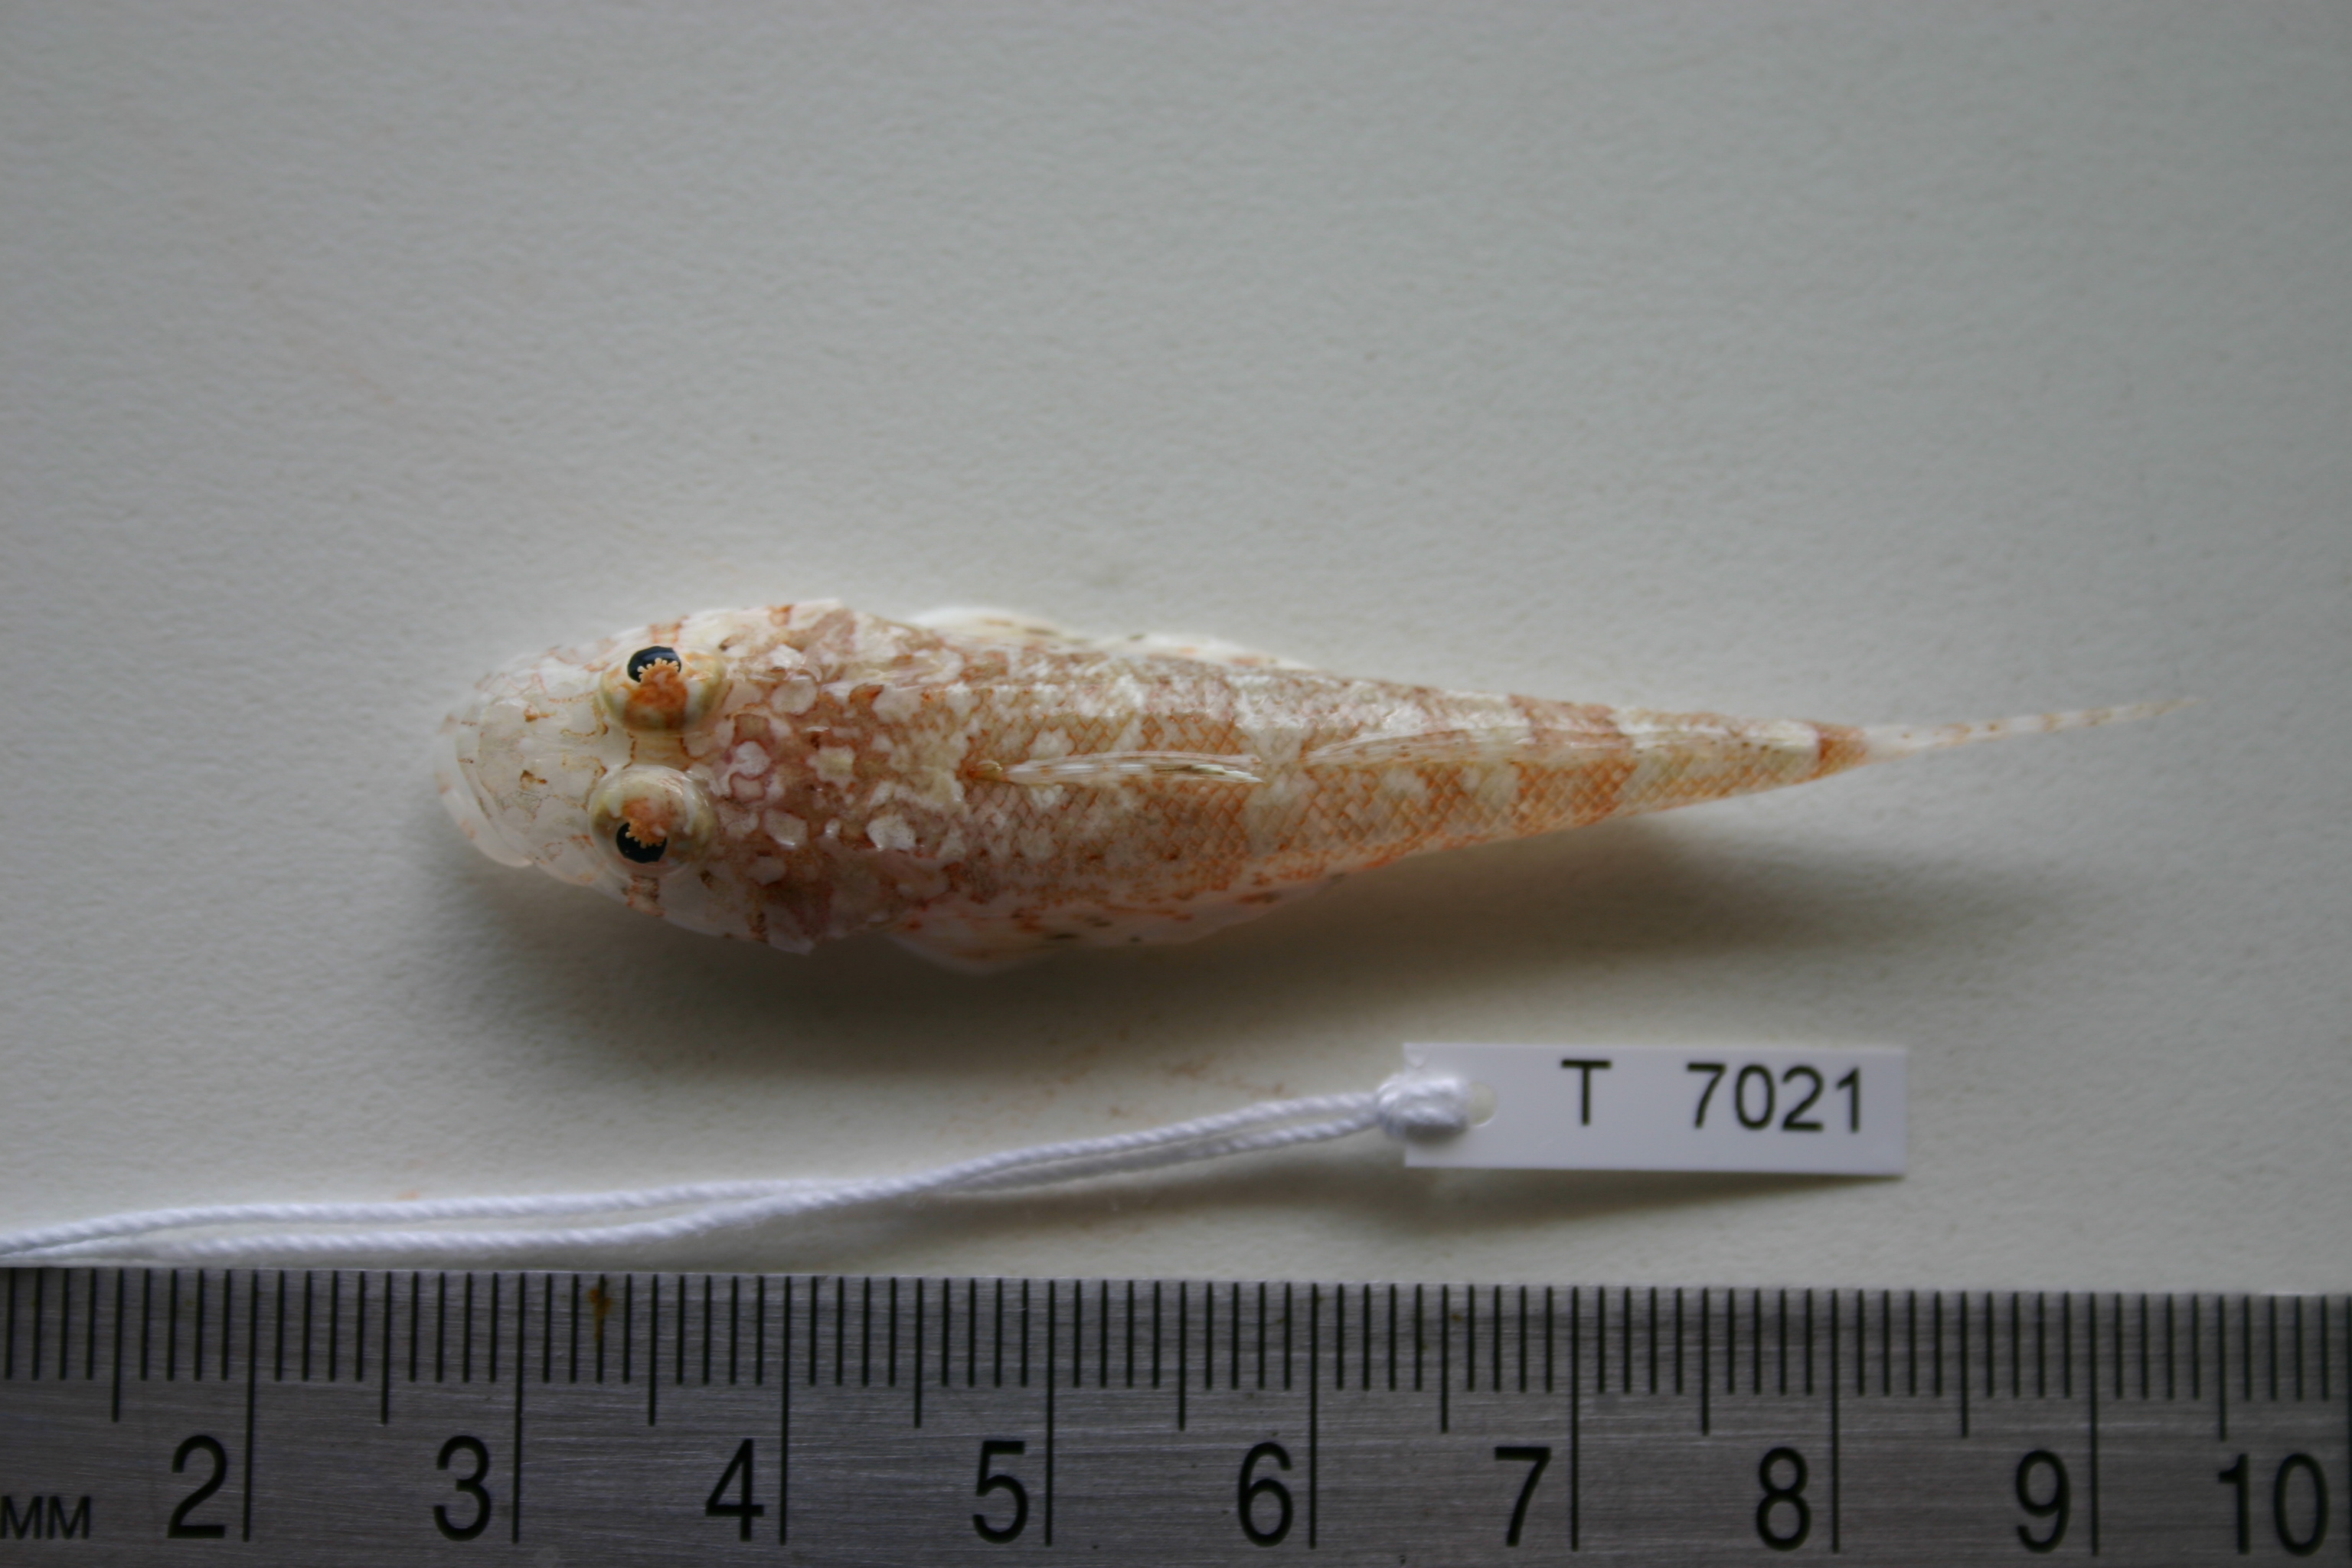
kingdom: Animalia
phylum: Chordata
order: Scorpaeniformes
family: Platycephalidae
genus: Sunagocia
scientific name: Sunagocia arenicola
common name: Broadhead flathead
